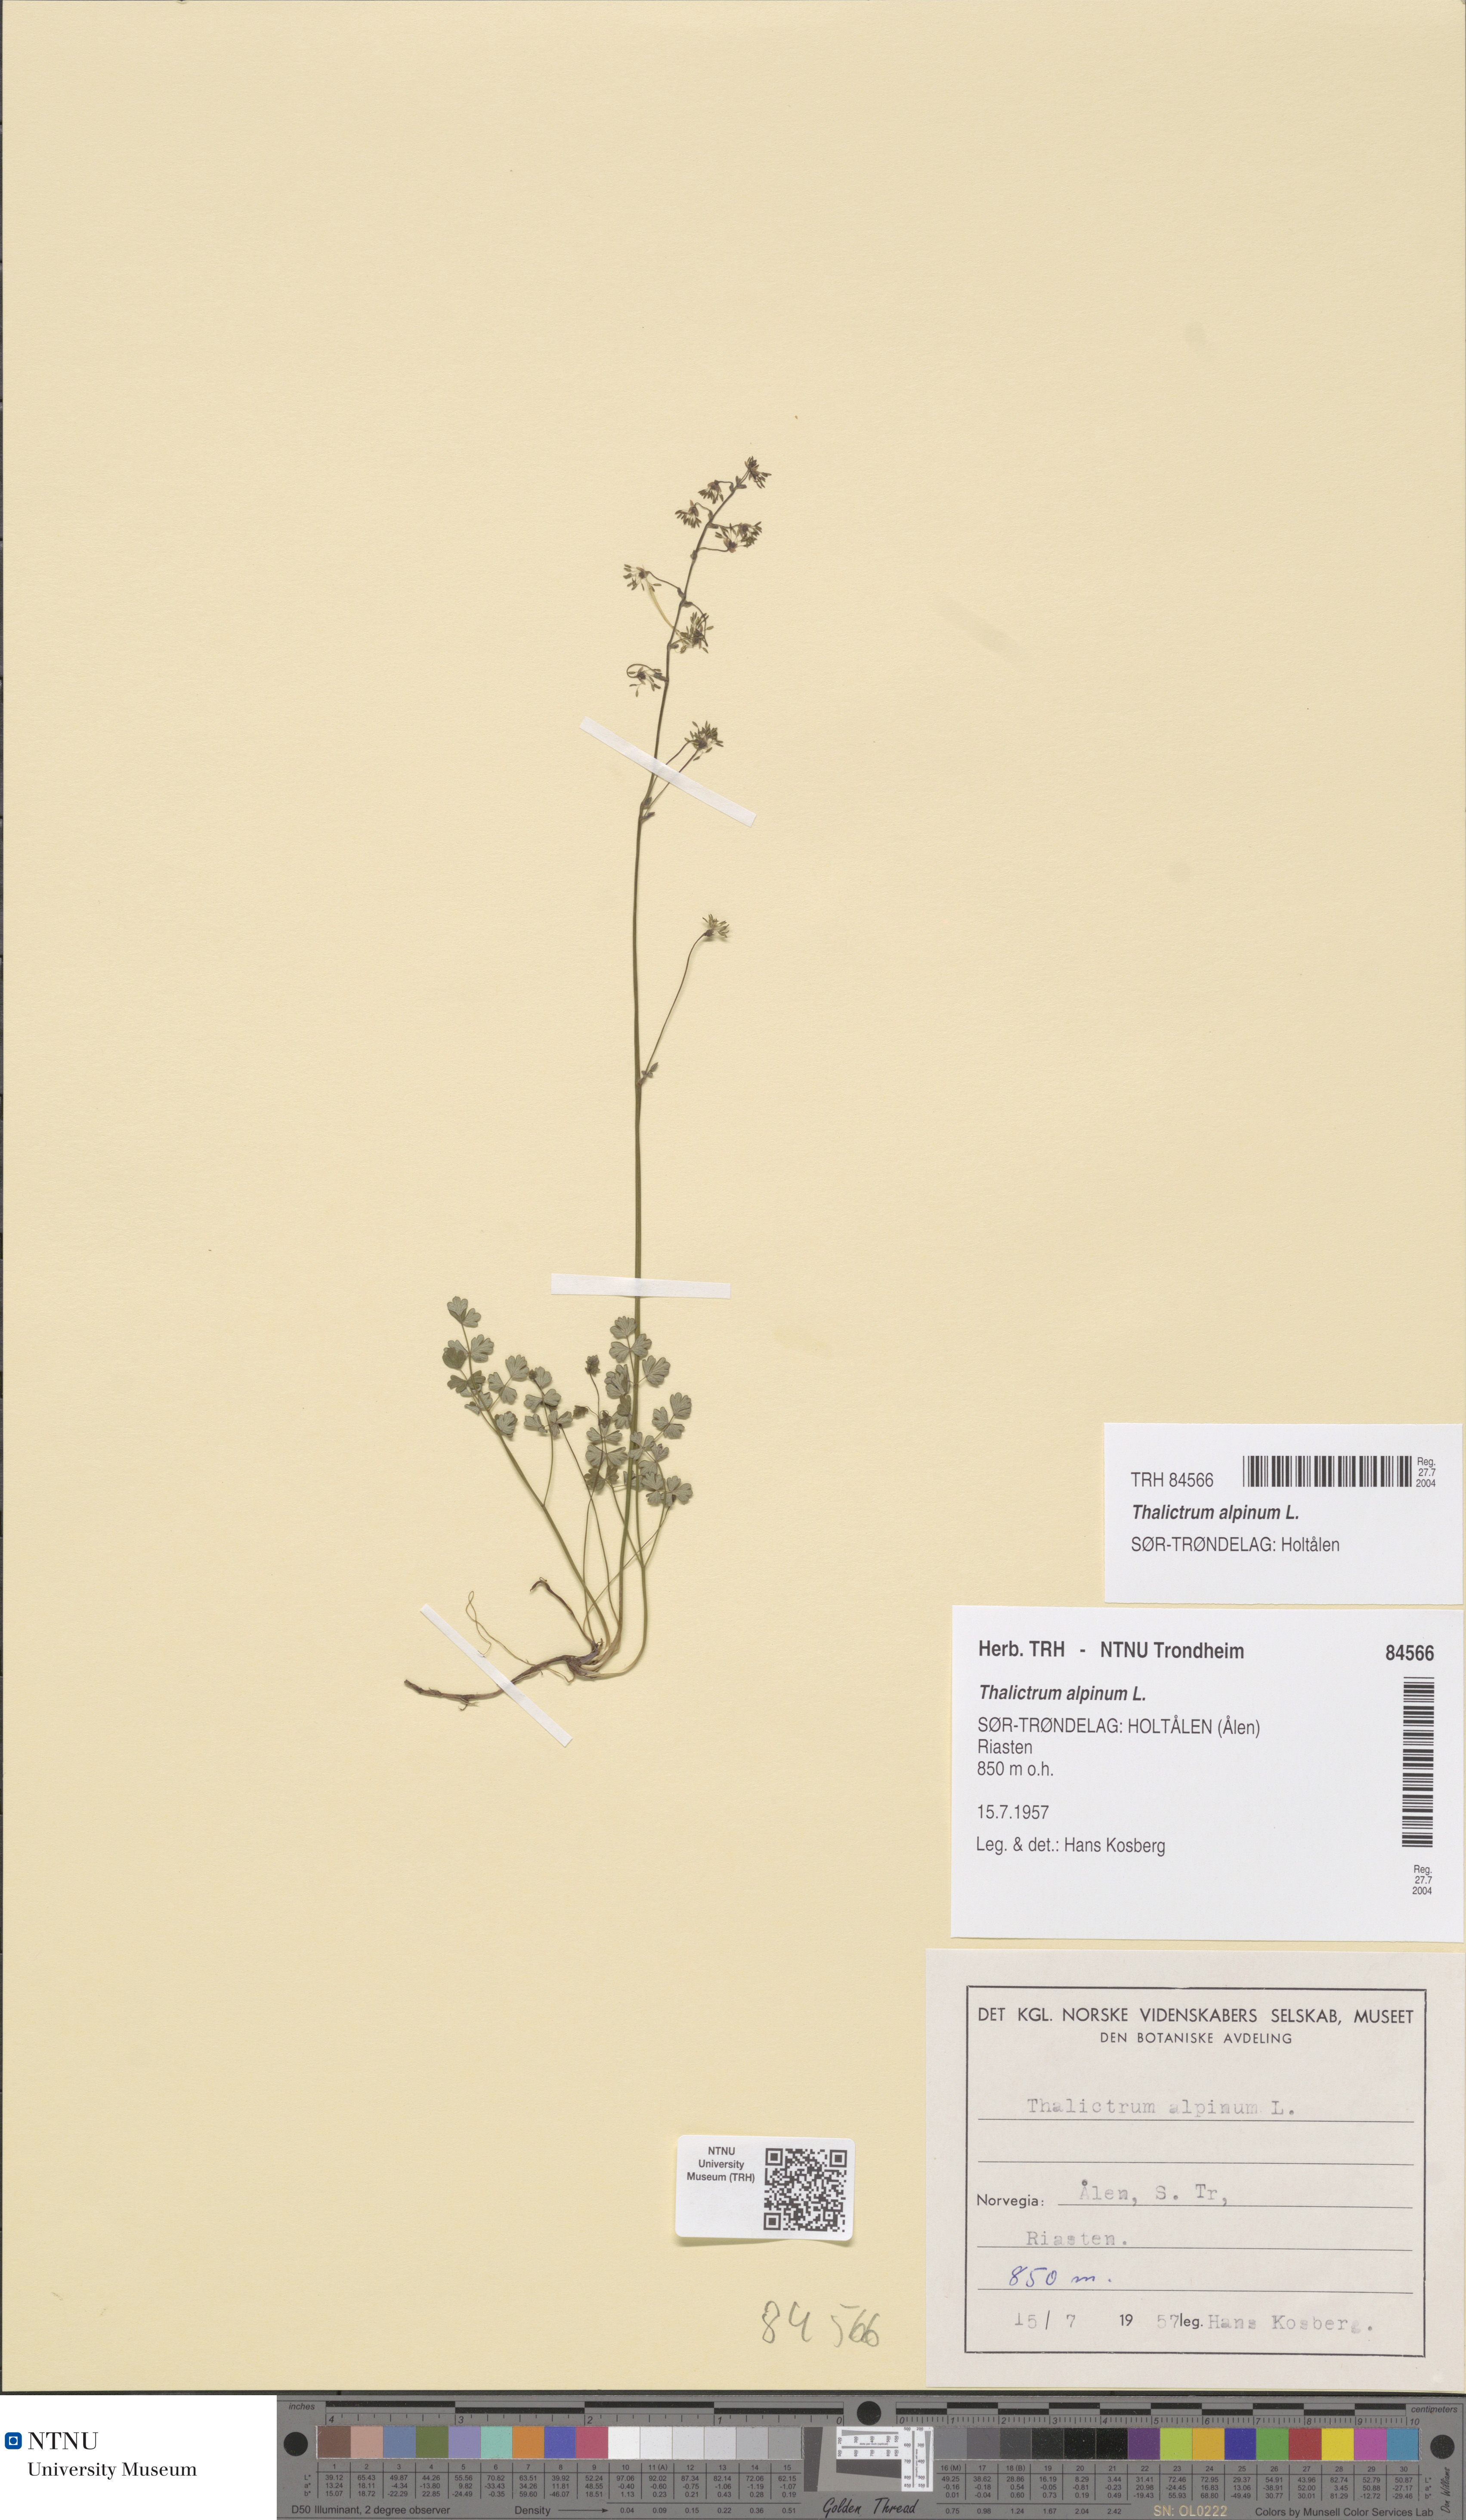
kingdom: Plantae
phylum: Tracheophyta
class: Magnoliopsida
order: Ranunculales
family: Ranunculaceae
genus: Thalictrum
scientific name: Thalictrum alpinum
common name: Alpine meadow-rue
